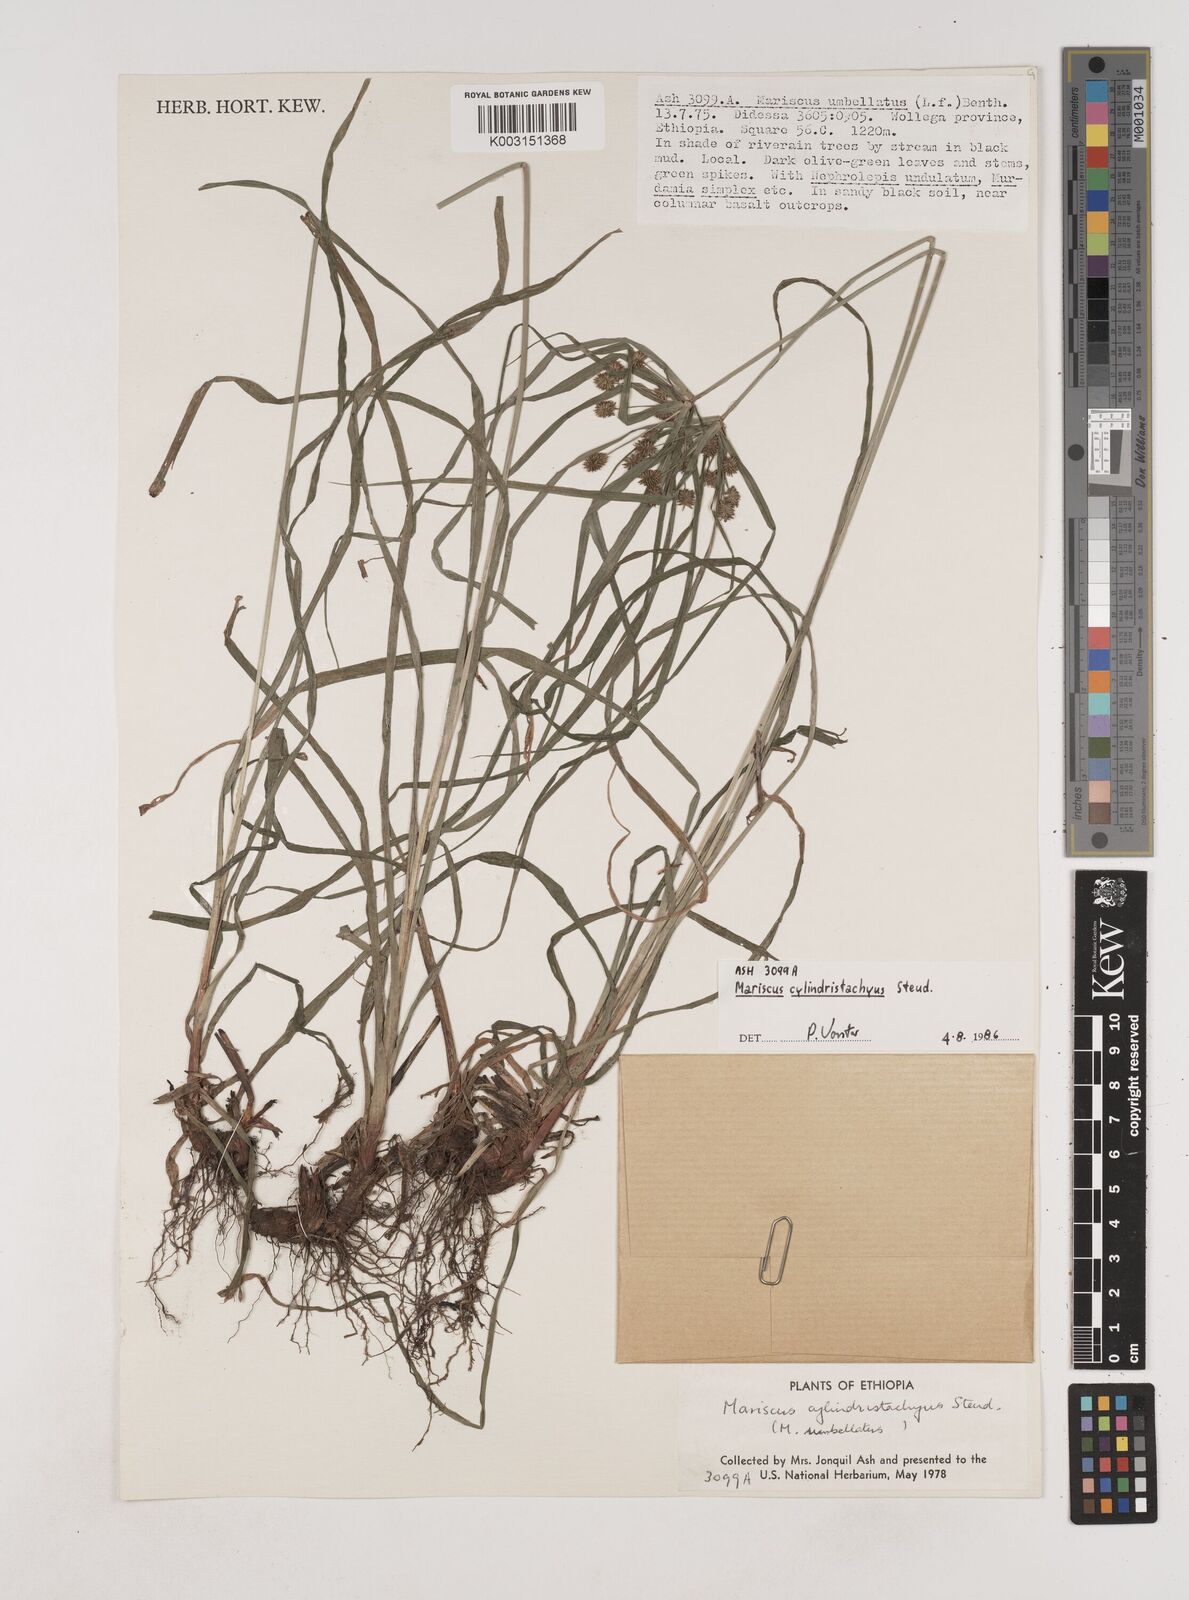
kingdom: Plantae
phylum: Tracheophyta
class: Liliopsida
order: Poales
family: Cyperaceae
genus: Cyperus
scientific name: Cyperus cyperoides
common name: Pacific island flat sedge
